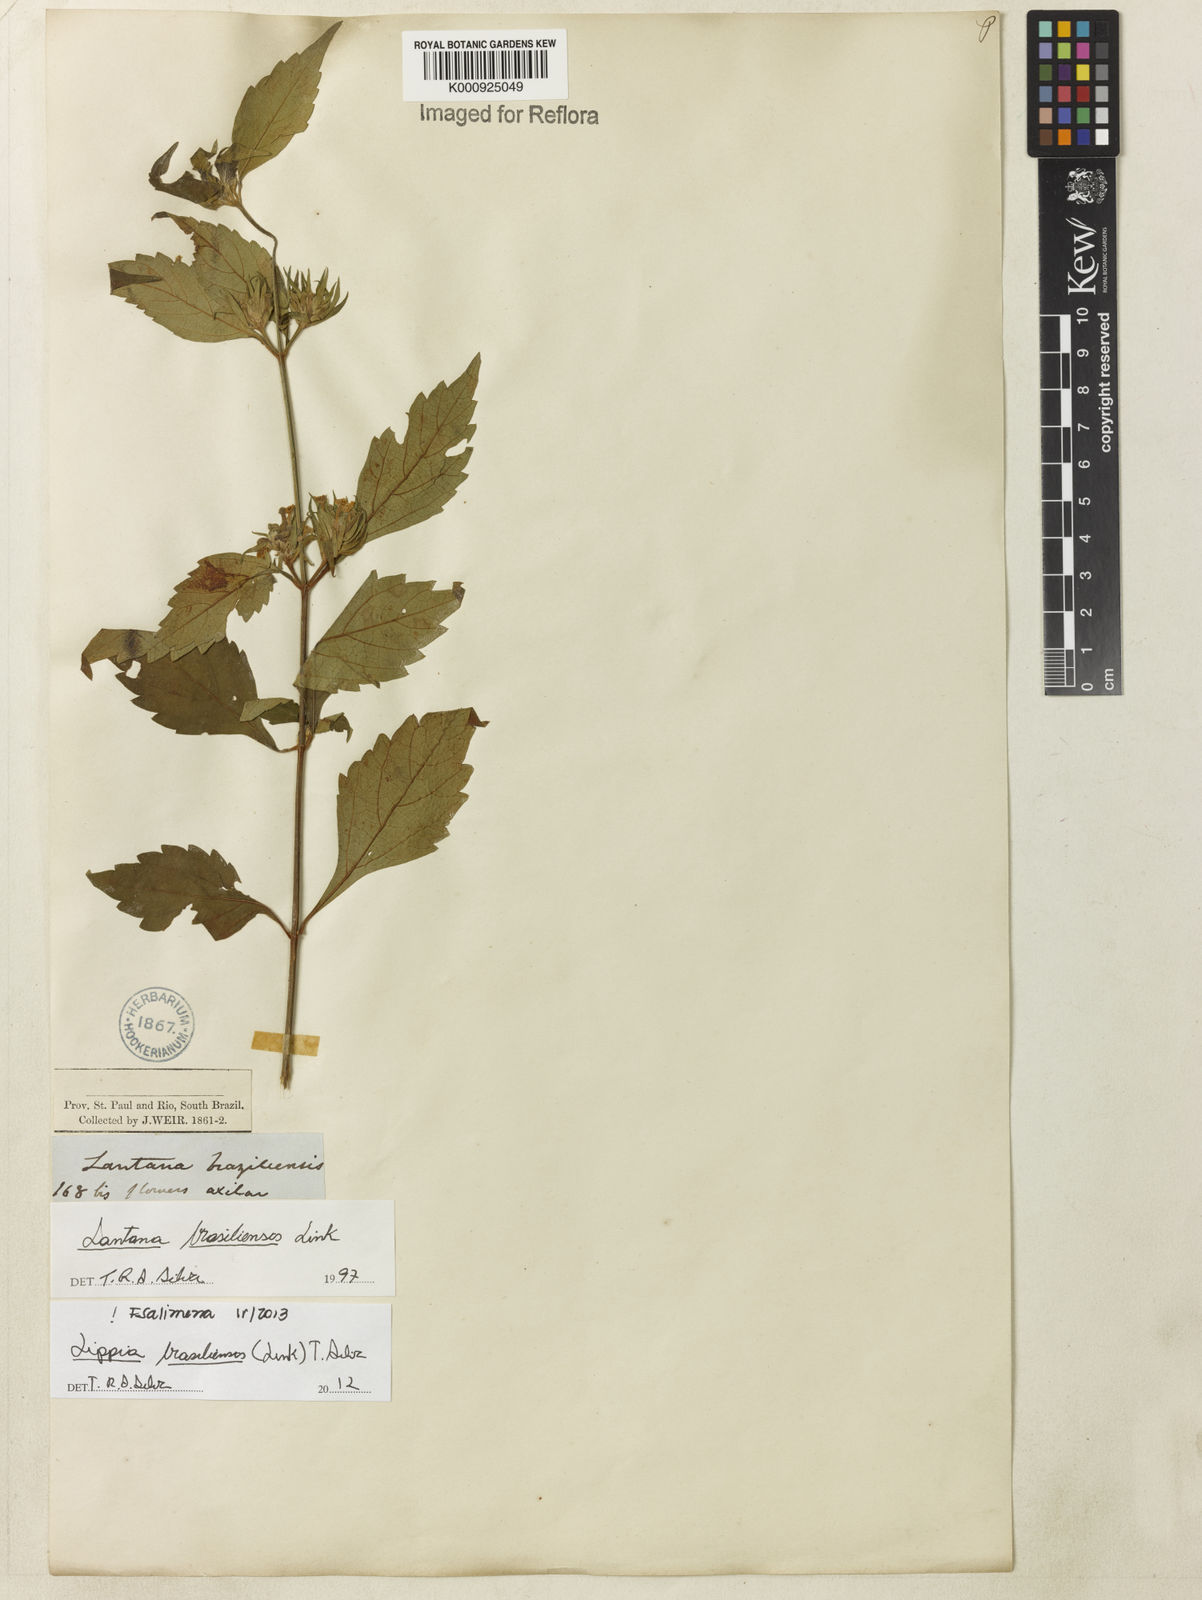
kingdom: Plantae
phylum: Tracheophyta
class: Magnoliopsida
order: Lamiales
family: Verbenaceae
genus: Lippia
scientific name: Lippia brasiliensis
